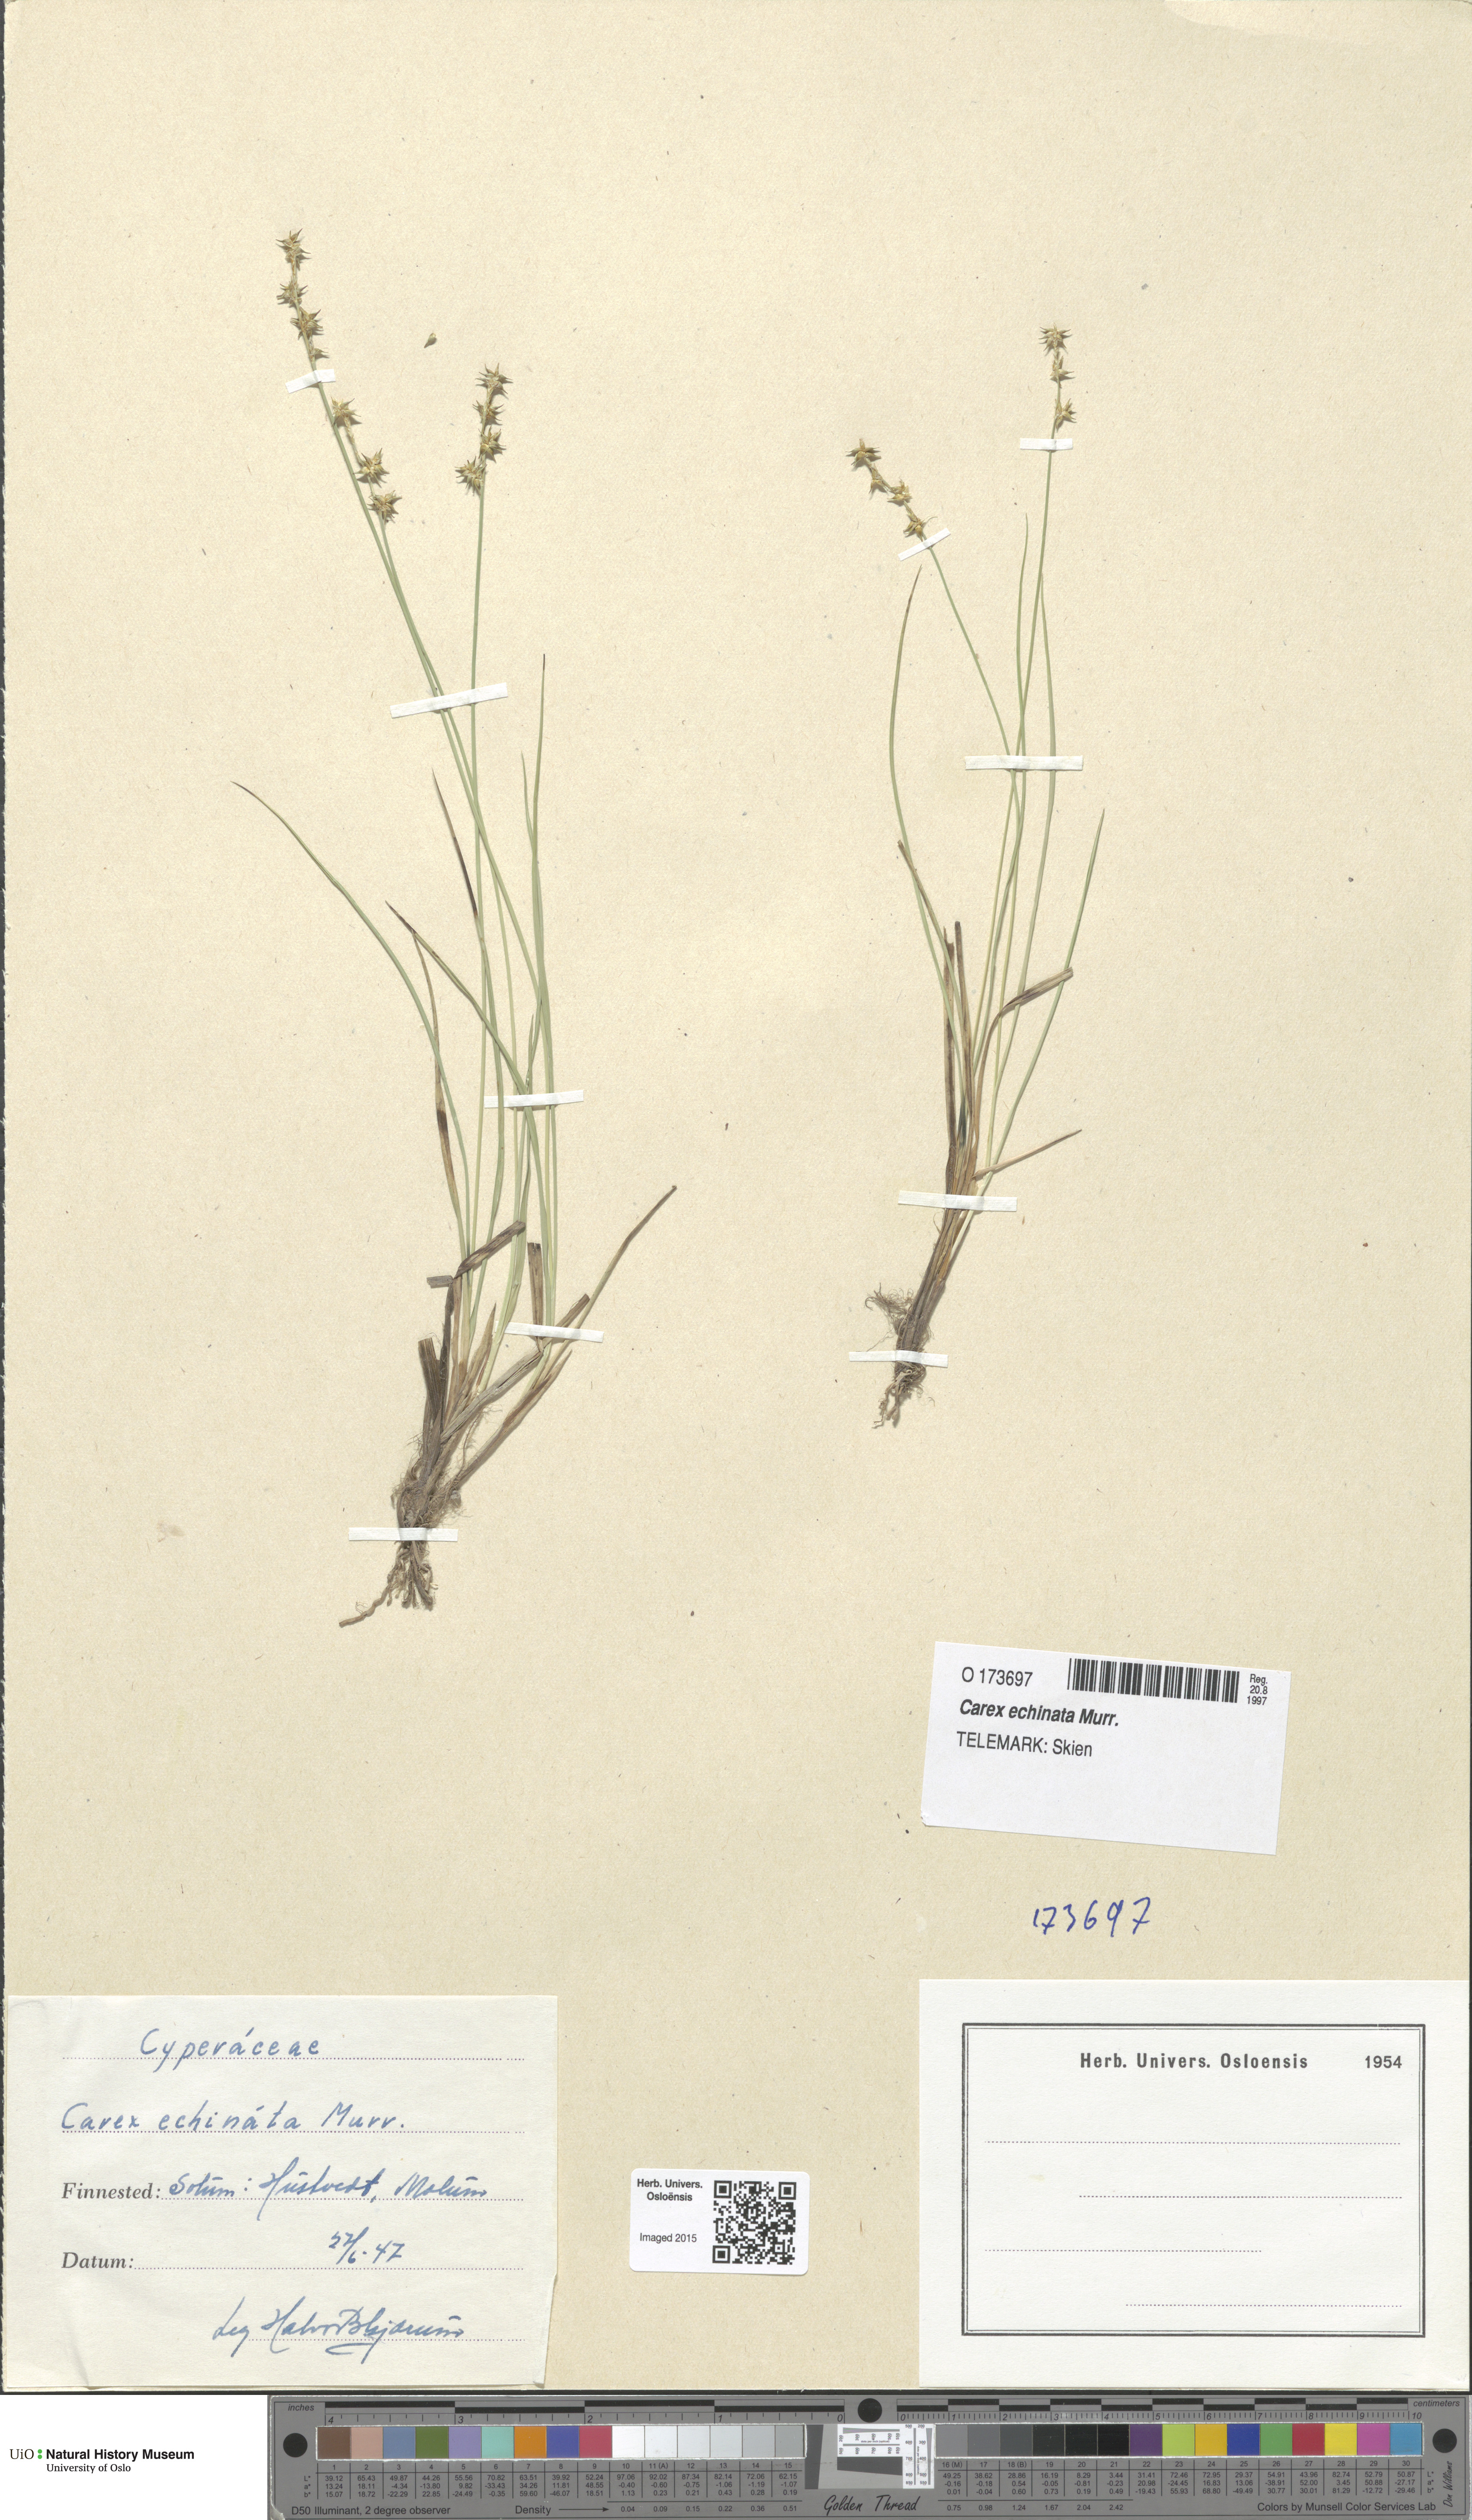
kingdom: Plantae
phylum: Tracheophyta
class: Liliopsida
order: Poales
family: Cyperaceae
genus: Carex
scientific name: Carex echinata
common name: Star sedge
